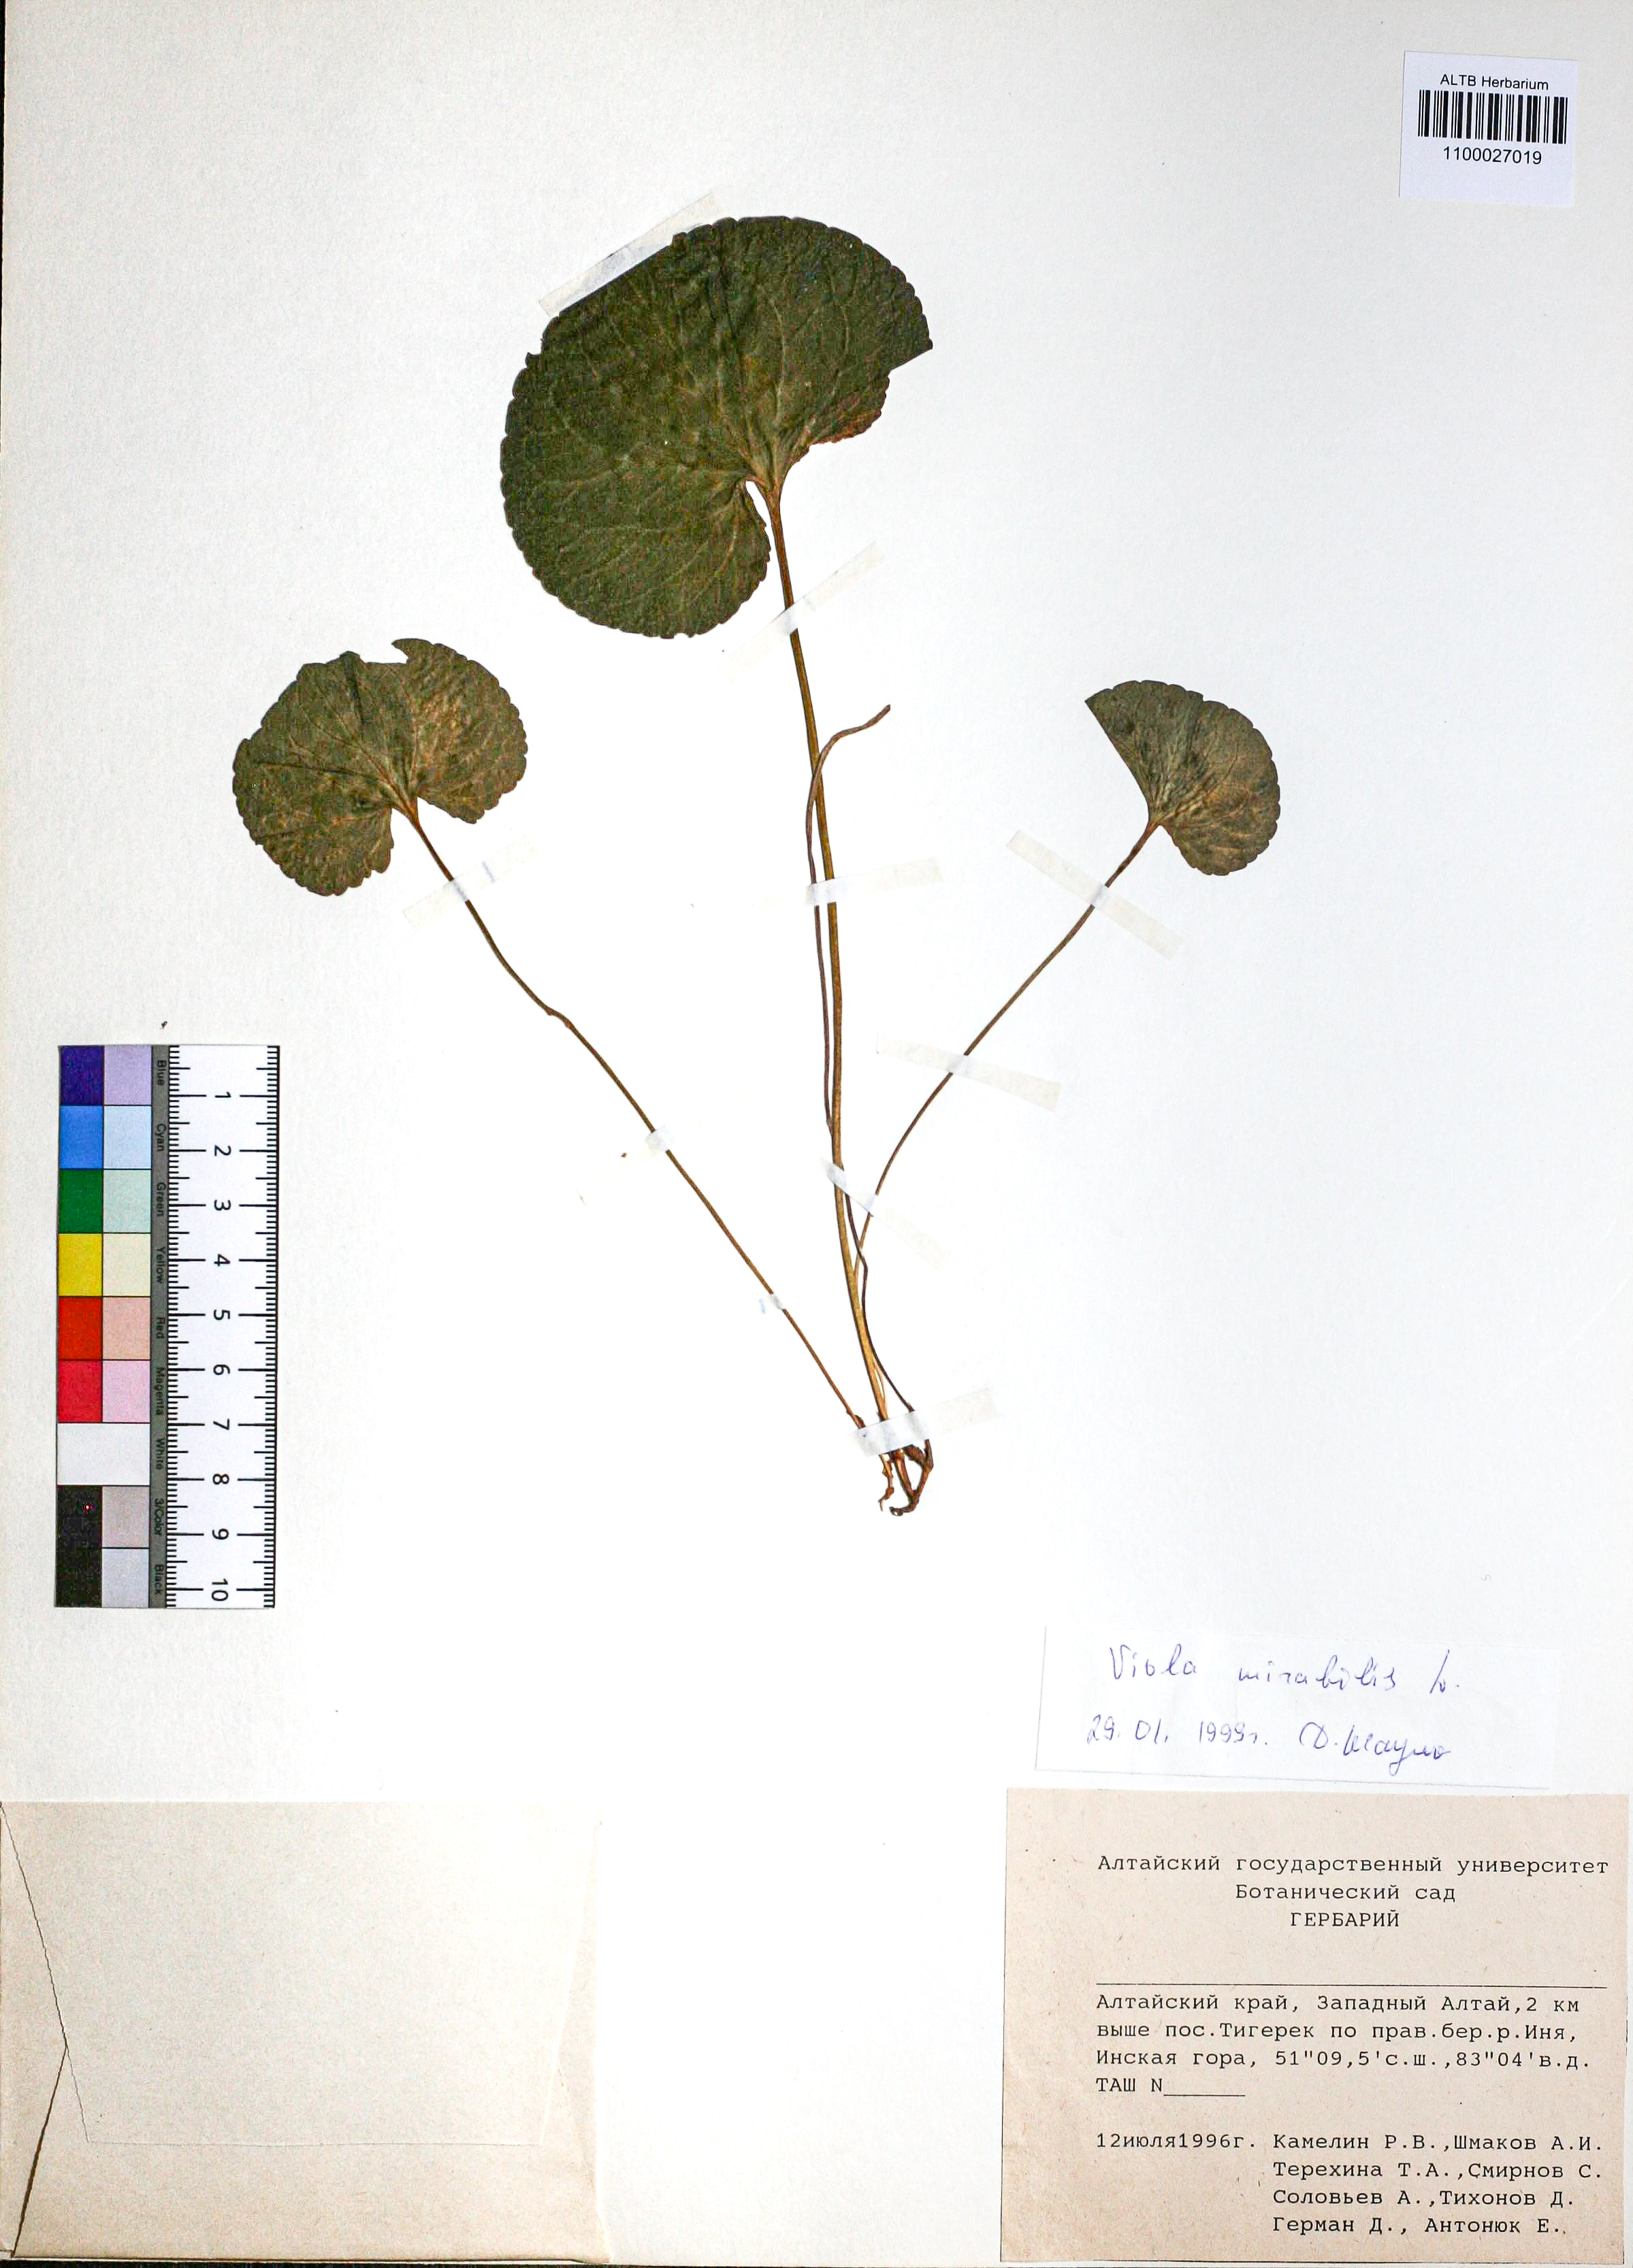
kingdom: Plantae
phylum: Tracheophyta
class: Magnoliopsida
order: Malpighiales
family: Violaceae
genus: Viola
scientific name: Viola mirabilis
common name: Wonder violet
